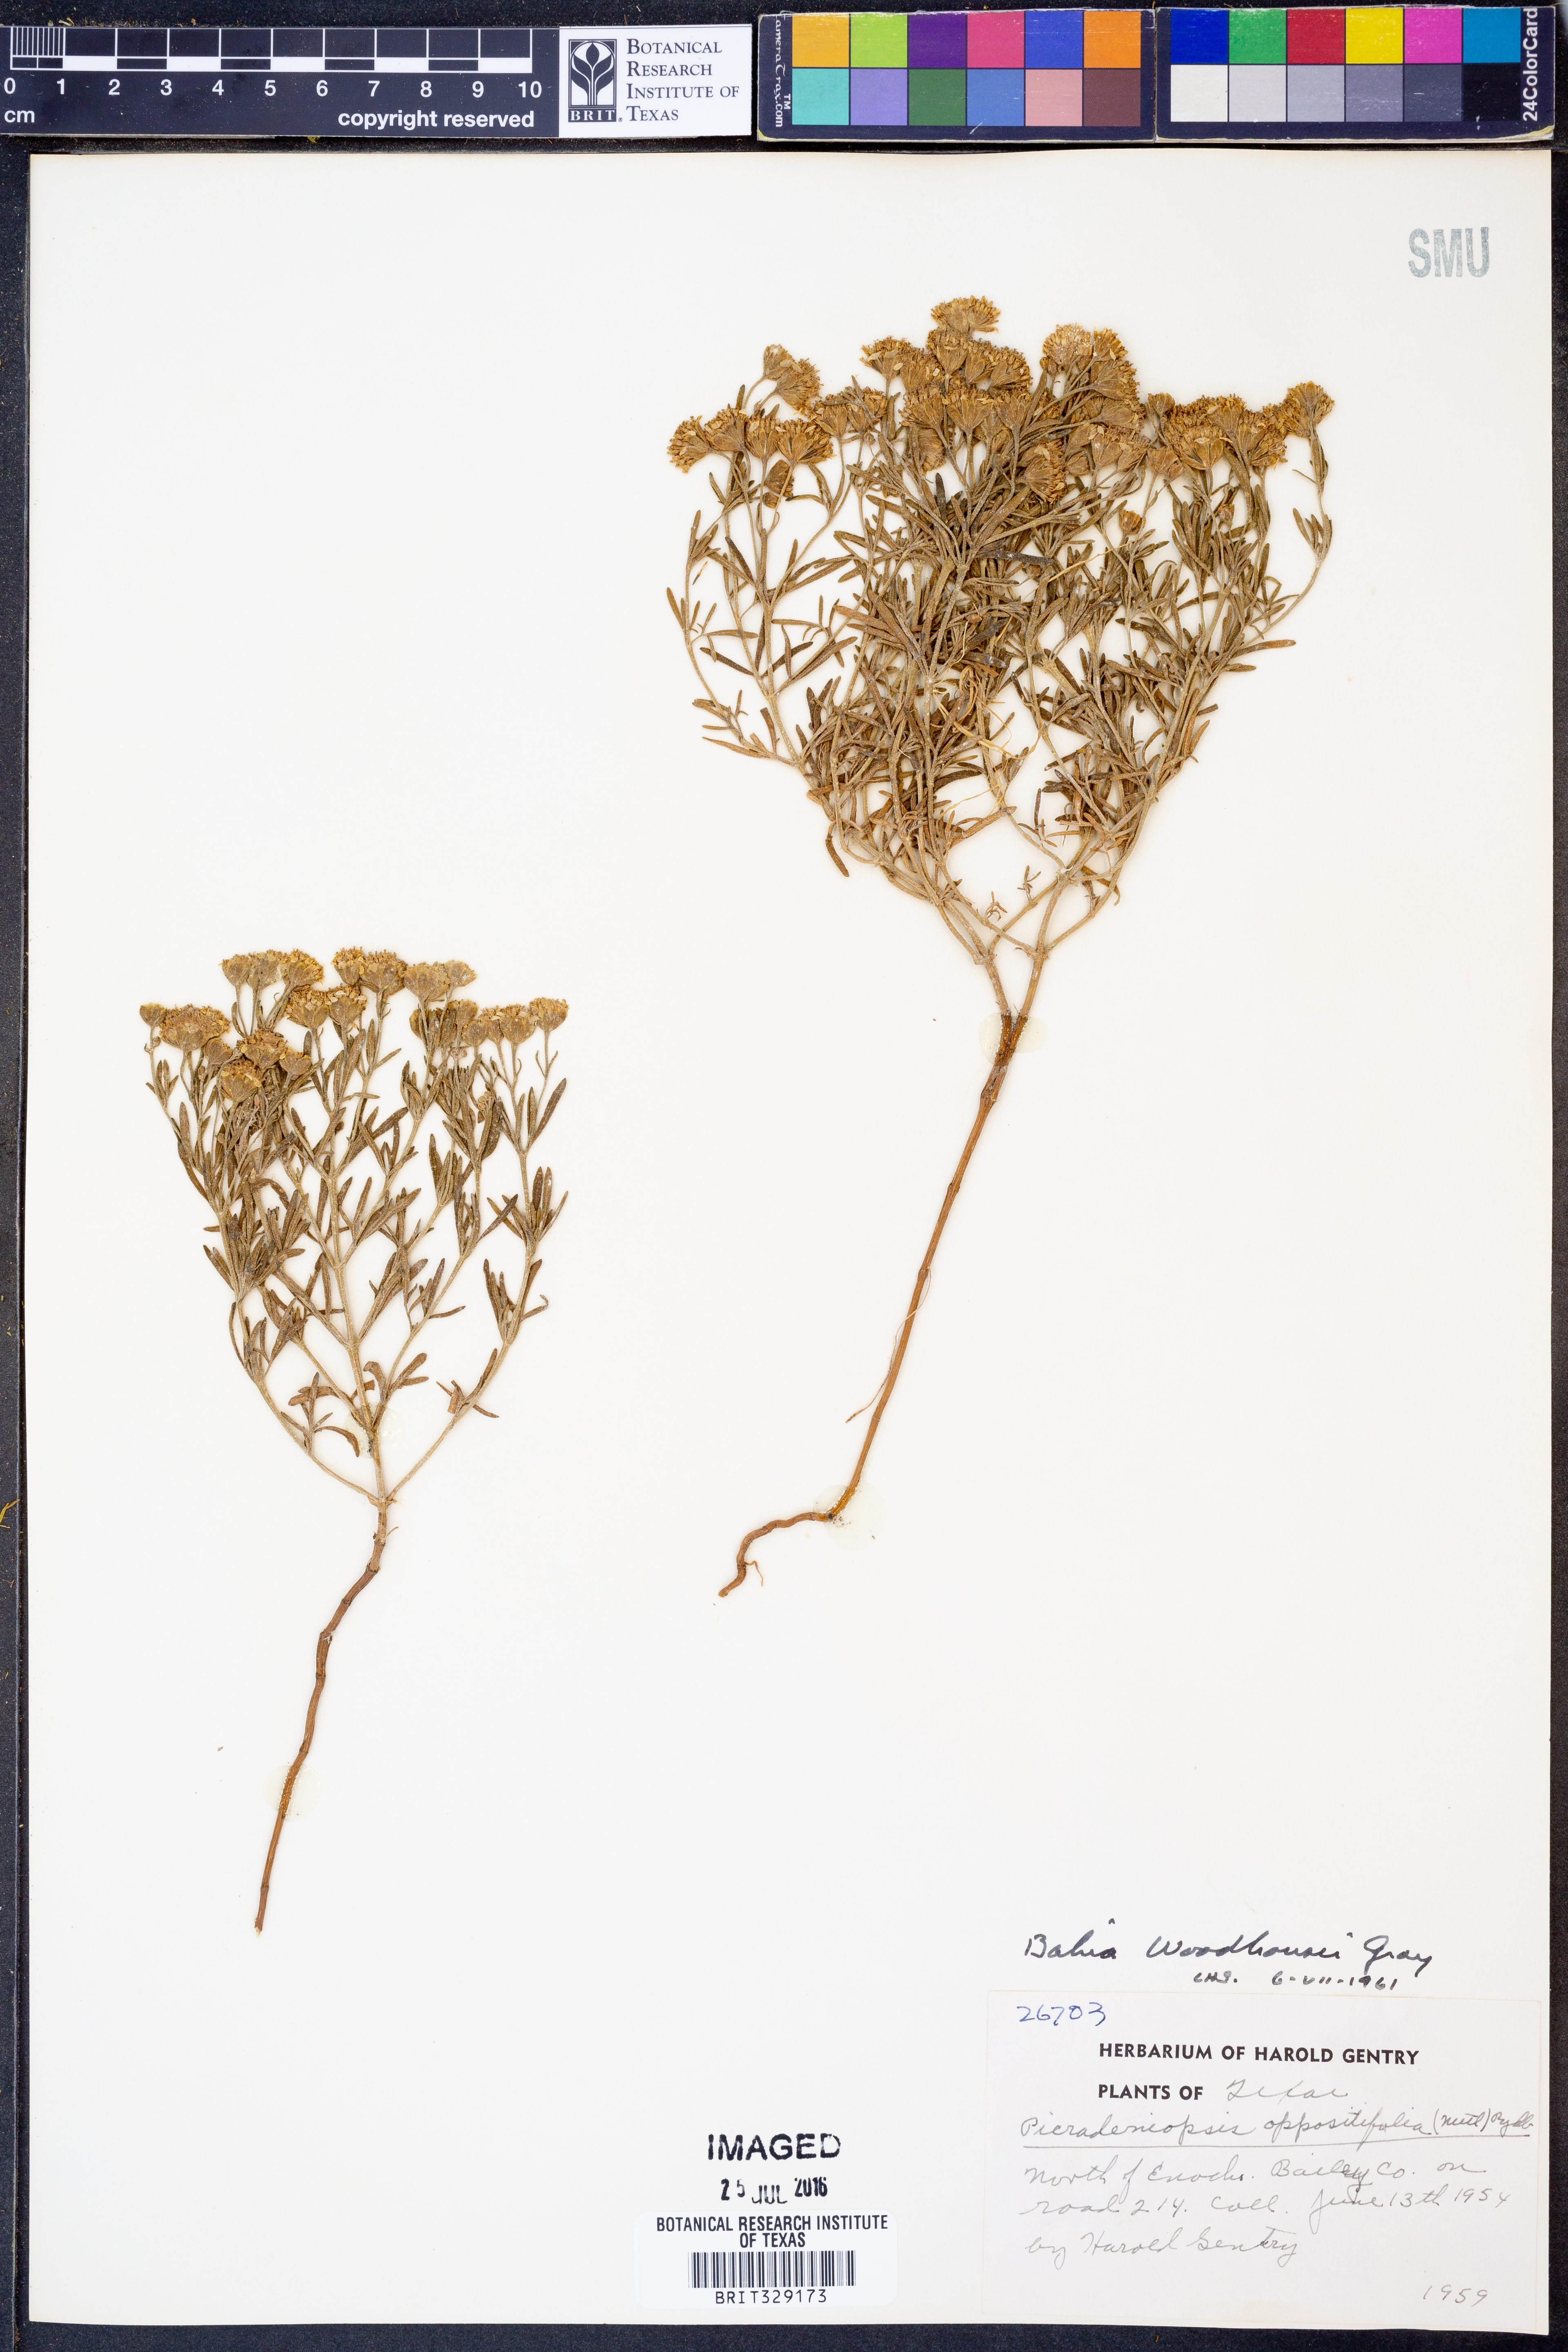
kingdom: Plantae
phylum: Tracheophyta
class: Magnoliopsida
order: Asterales
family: Asteraceae
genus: Picradeniopsis
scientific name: Picradeniopsis woodhousei
